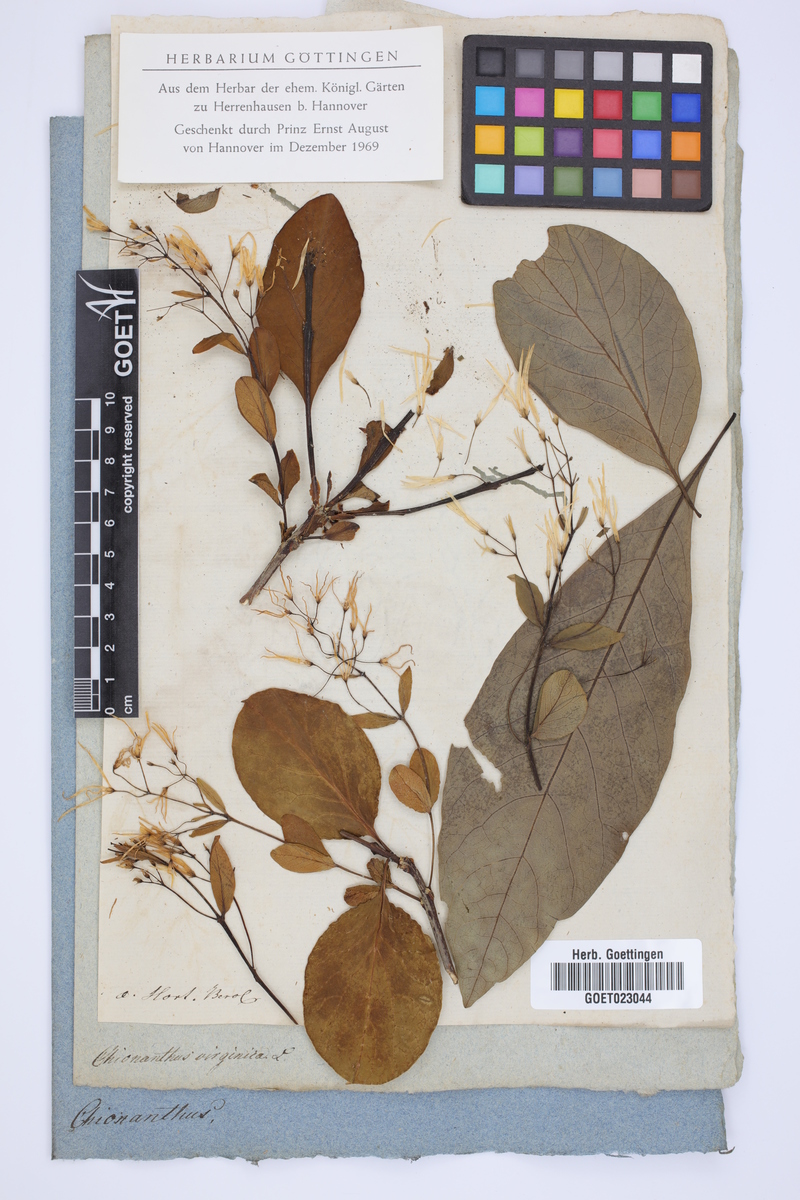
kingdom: Plantae
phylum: Tracheophyta
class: Magnoliopsida
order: Lamiales
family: Oleaceae
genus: Chionanthus
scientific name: Chionanthus virginicus
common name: American fringetree
